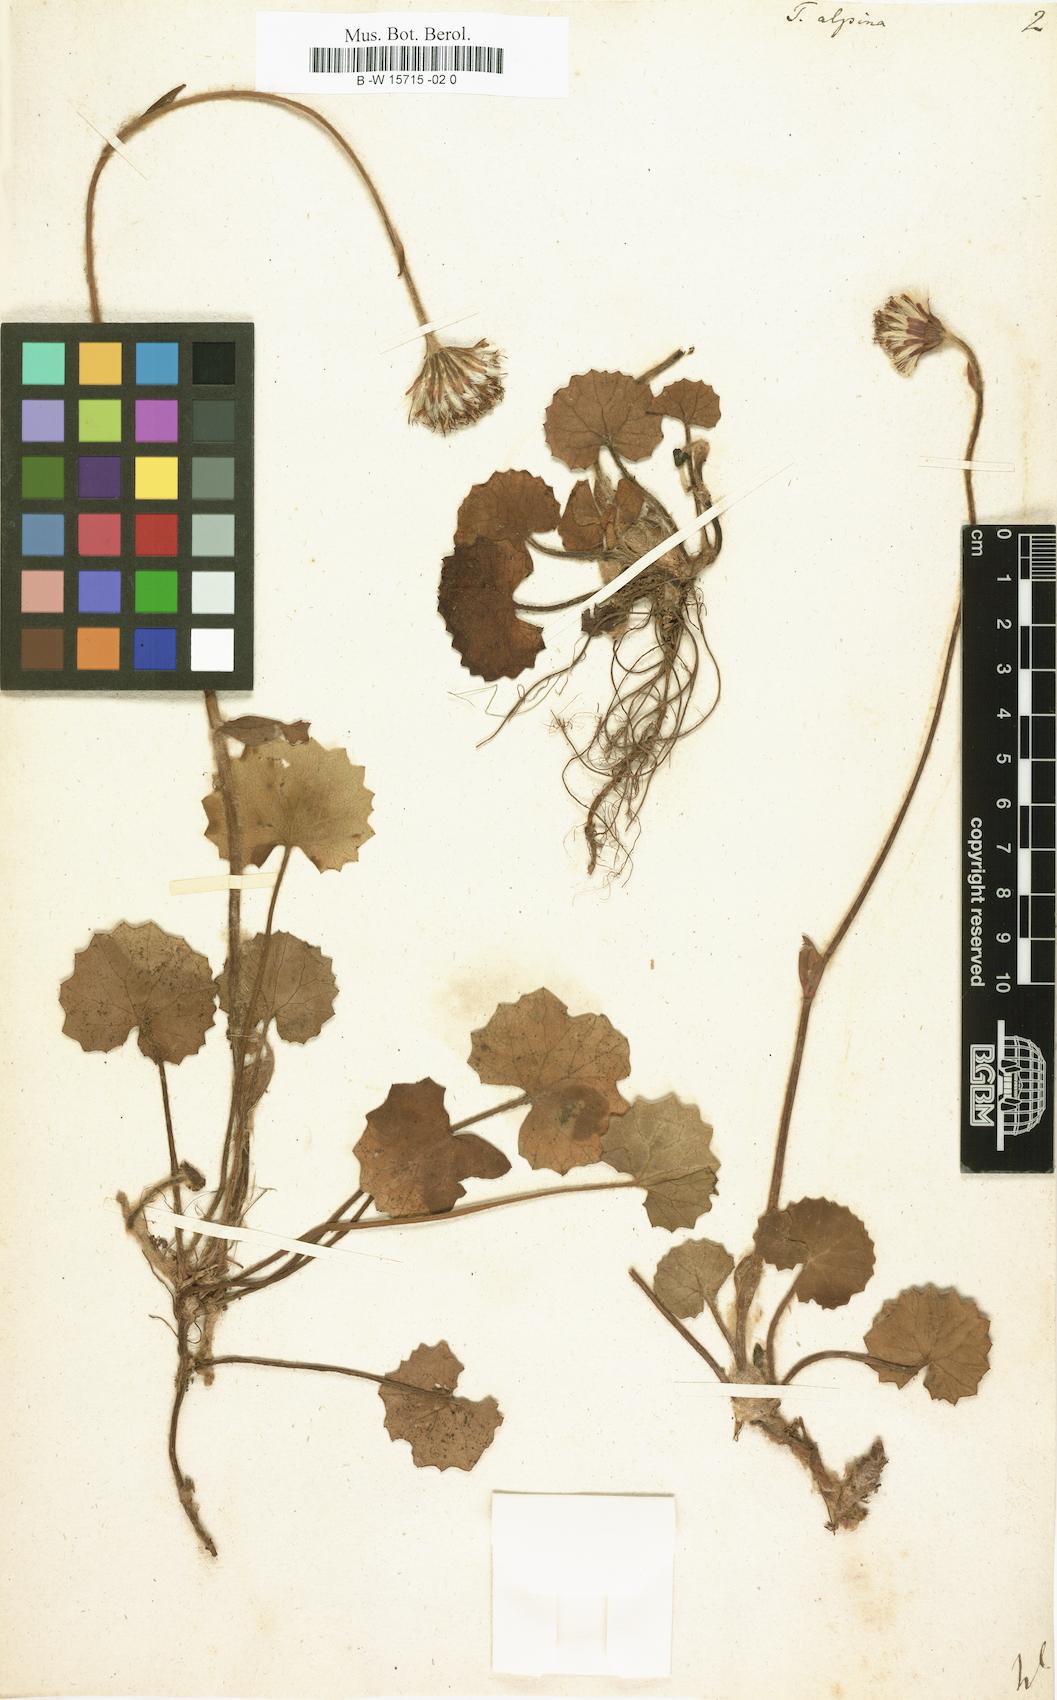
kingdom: Plantae
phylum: Tracheophyta
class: Magnoliopsida
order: Asterales
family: Asteraceae
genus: Tussilago
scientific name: Tussilago alpina
